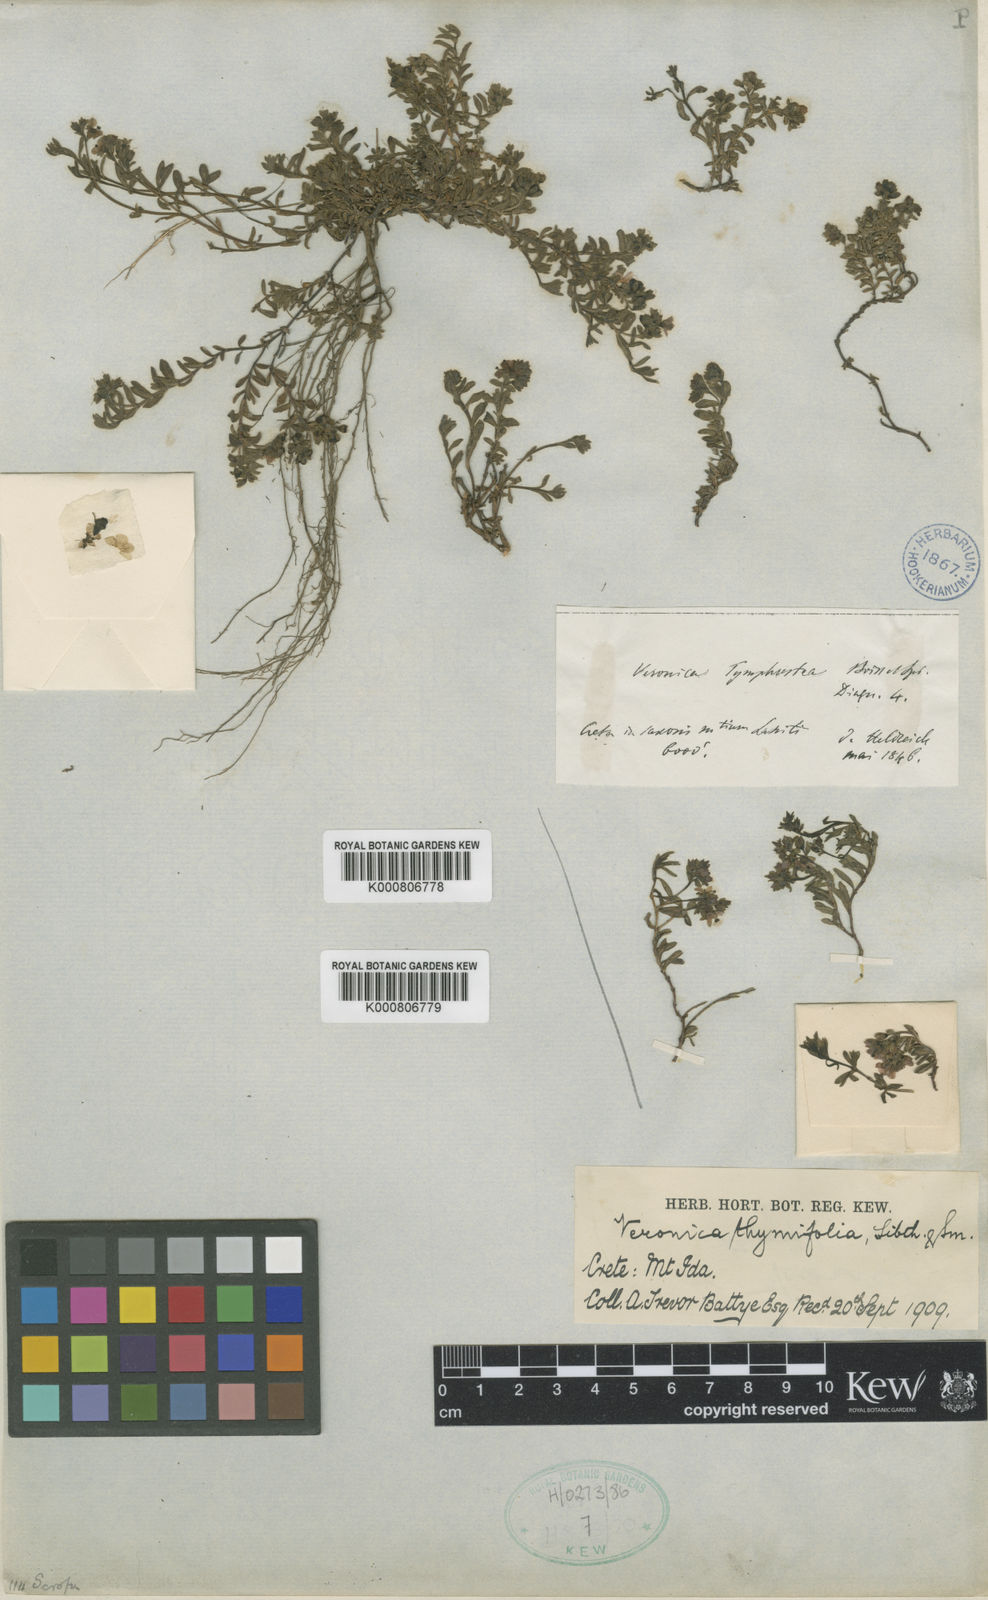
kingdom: Plantae
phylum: Tracheophyta
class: Magnoliopsida
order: Lamiales
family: Plantaginaceae
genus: Veronica
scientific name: Veronica thymifolia
